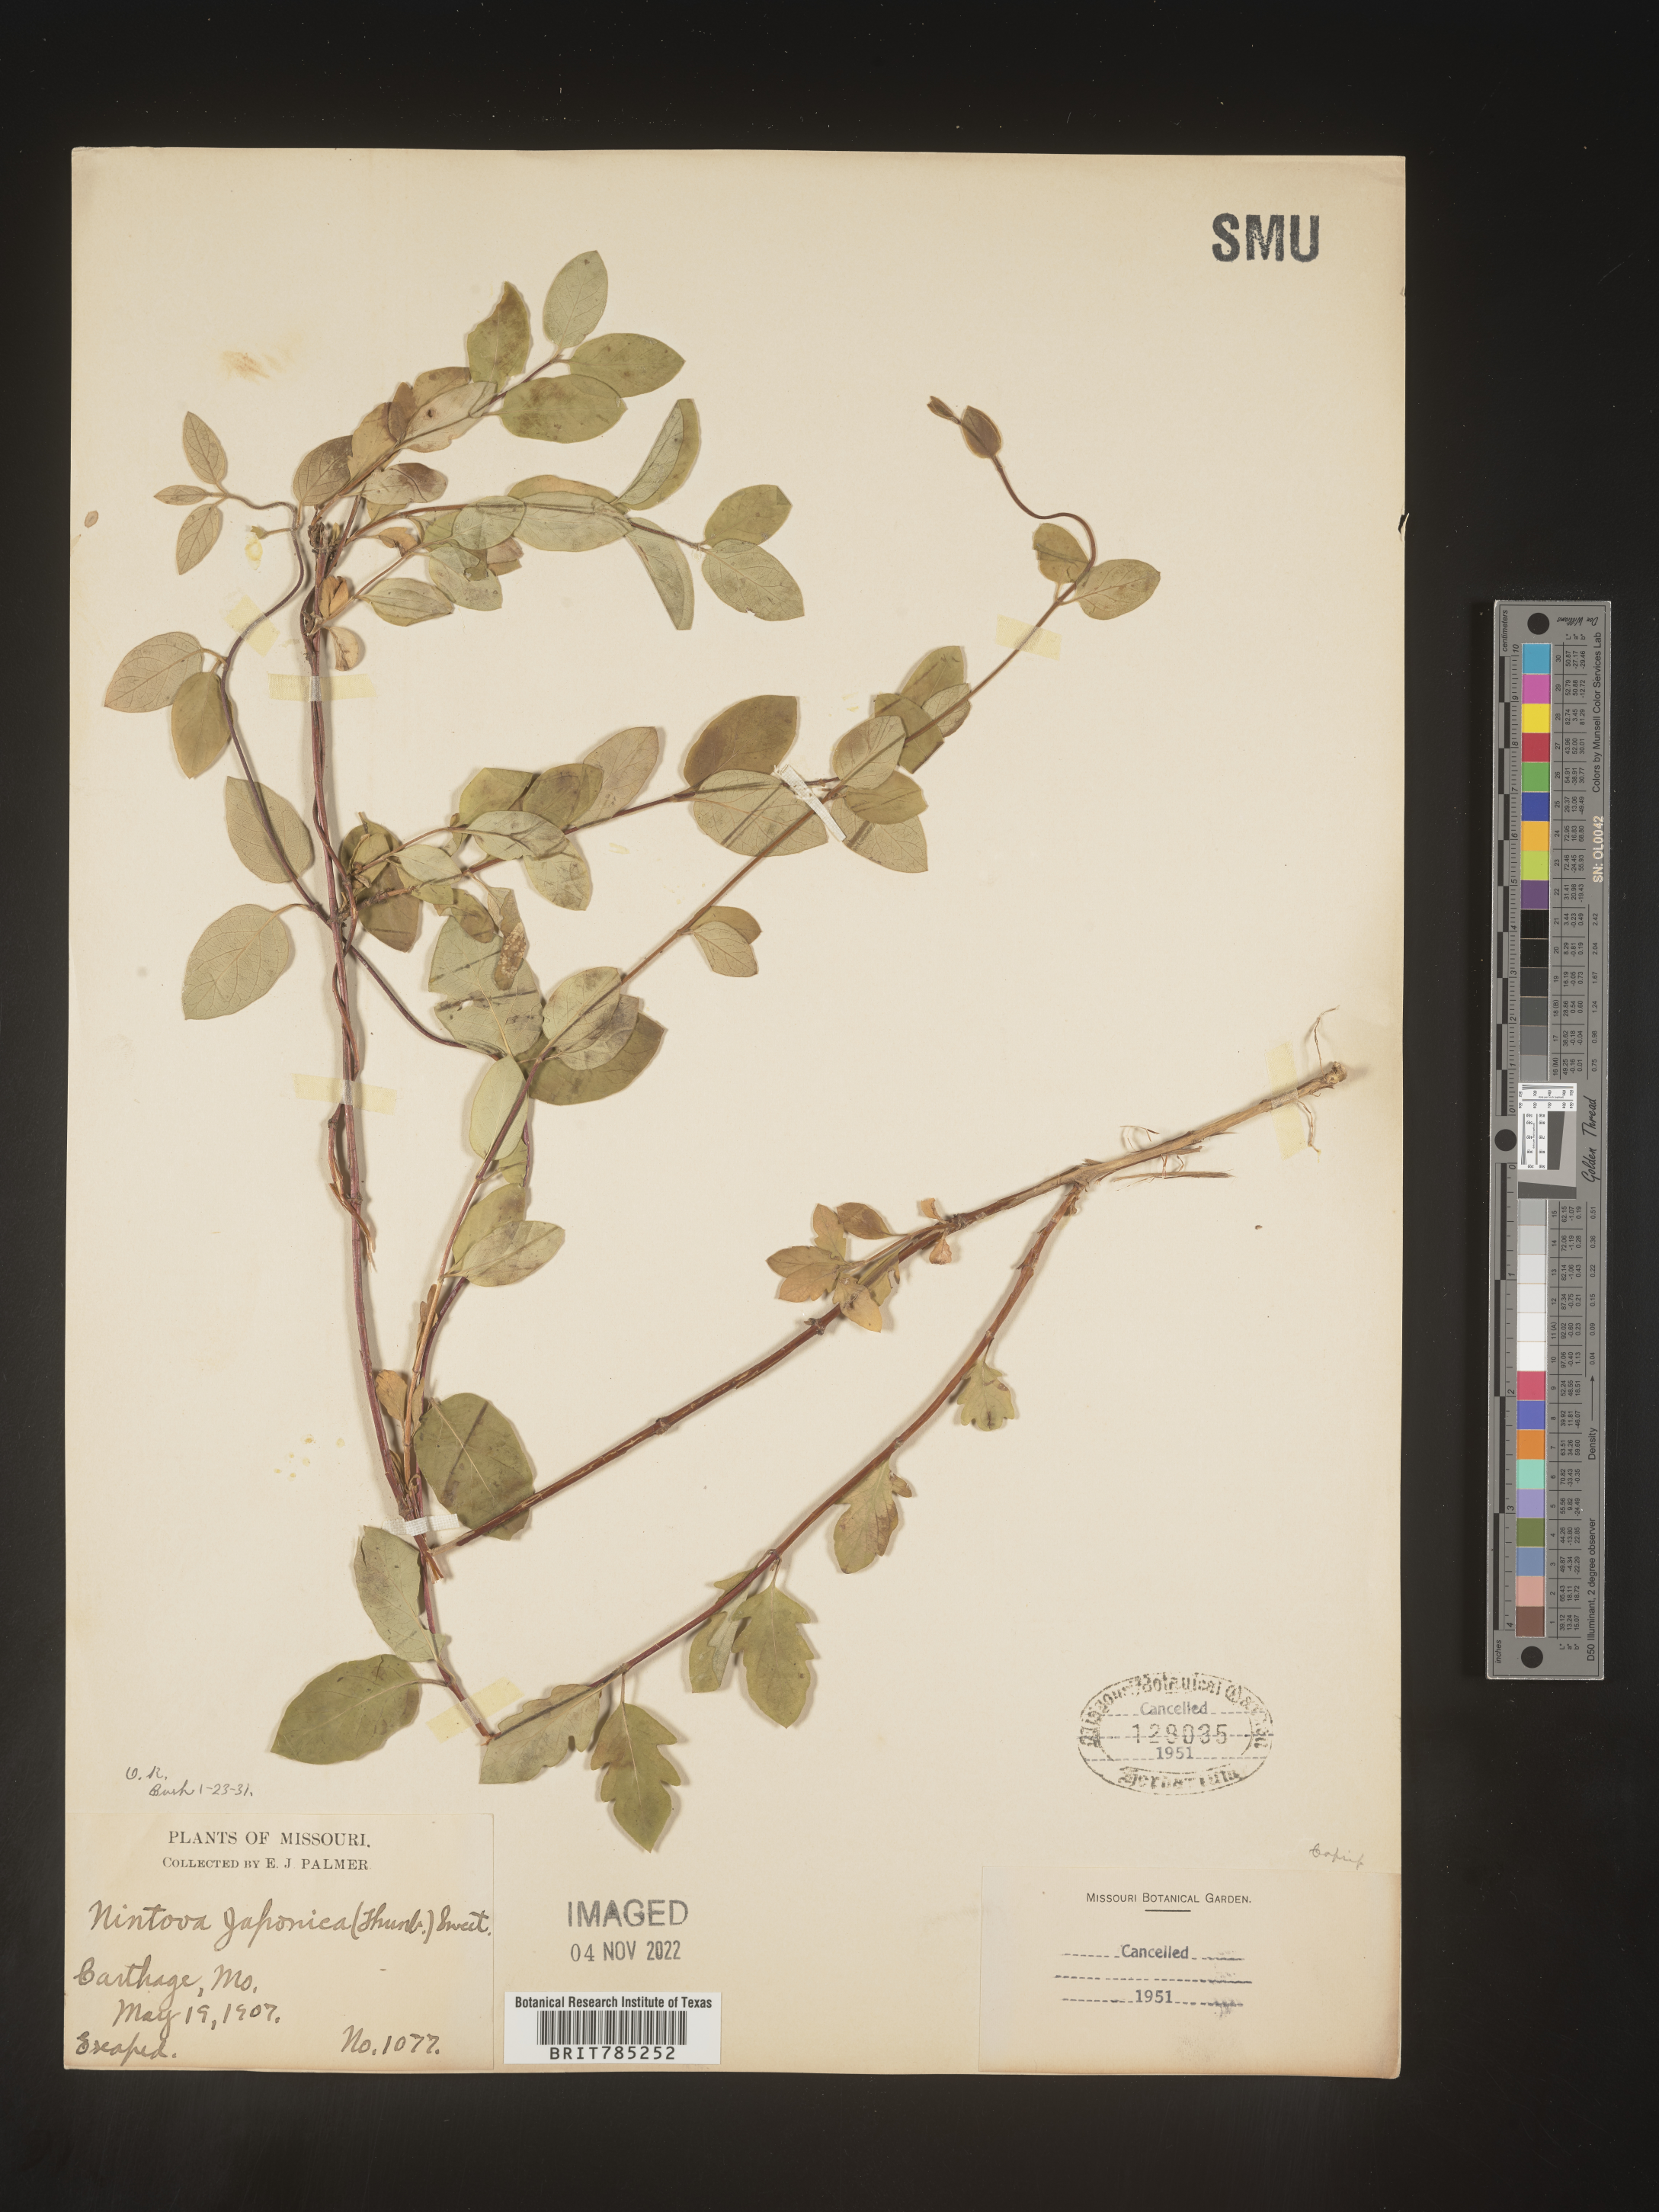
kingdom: Plantae
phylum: Tracheophyta
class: Magnoliopsida
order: Dipsacales
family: Caprifoliaceae
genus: Lonicera
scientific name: Lonicera japonica
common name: Japanese honeysuckle
